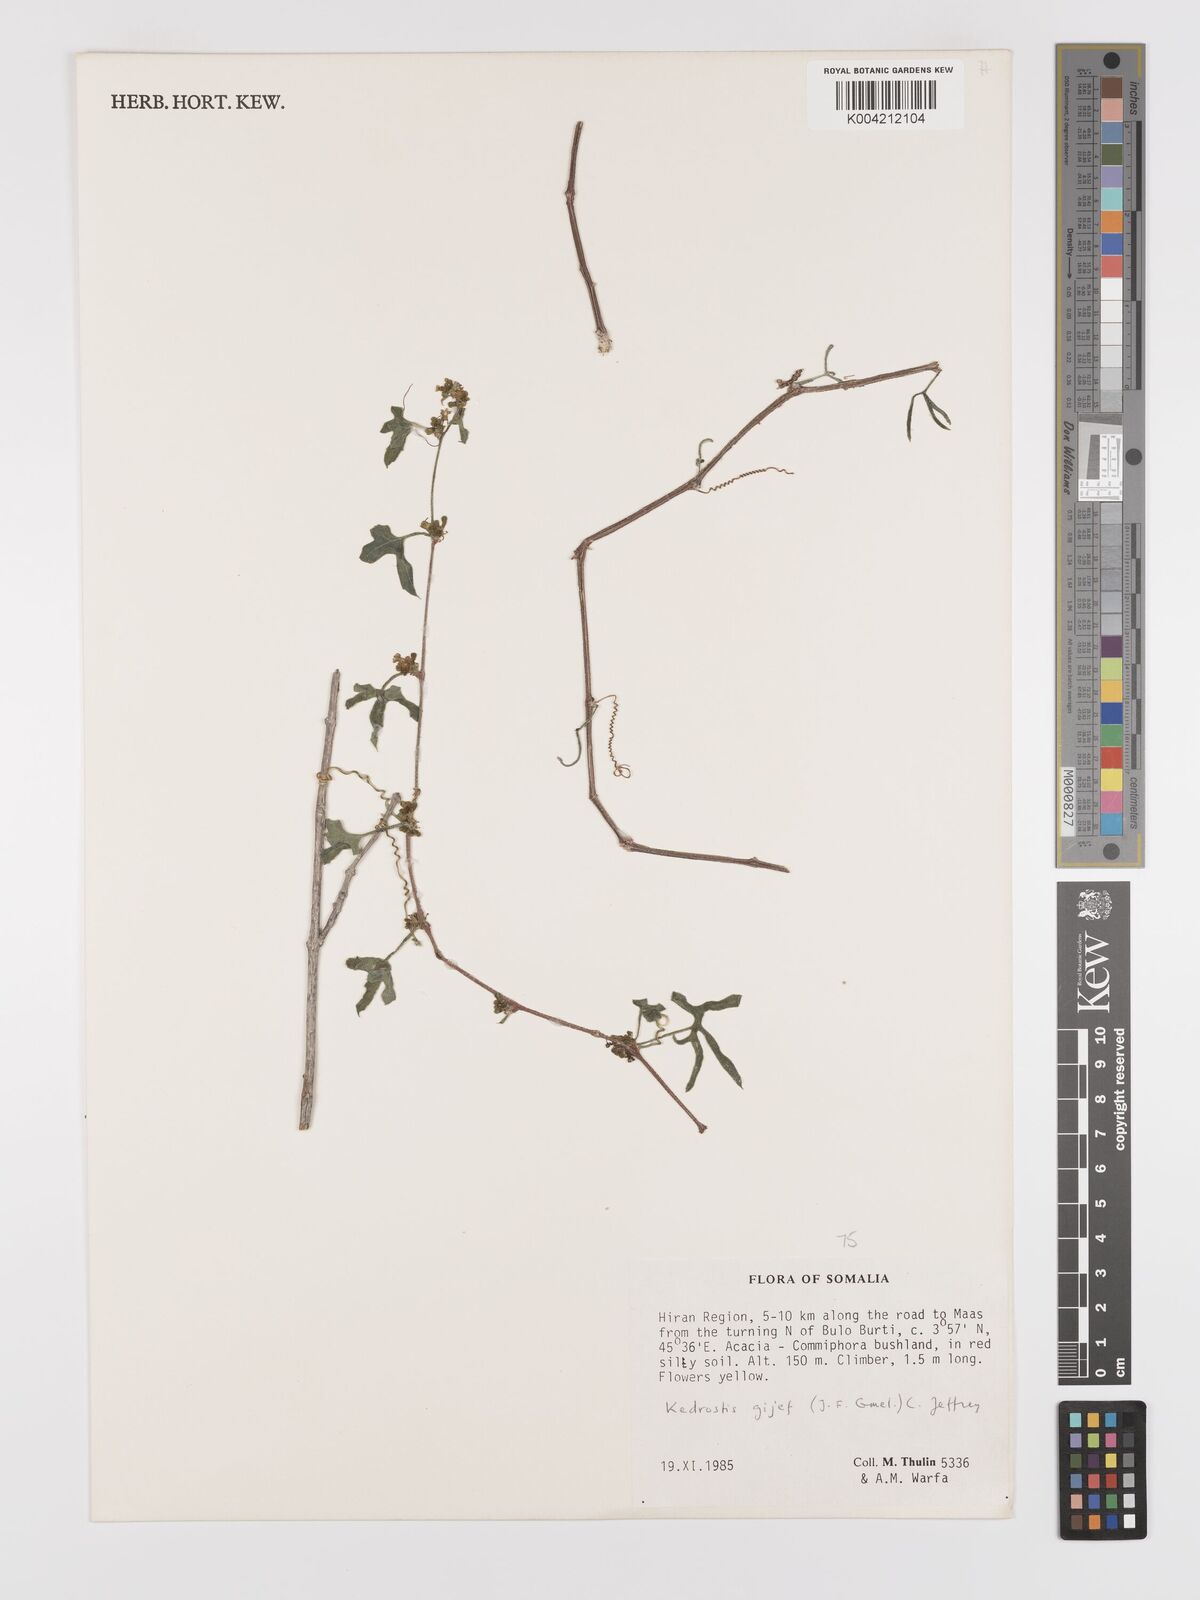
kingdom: Plantae
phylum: Tracheophyta
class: Magnoliopsida
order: Cucurbitales
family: Cucurbitaceae
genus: Kedrostis
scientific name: Kedrostis gijef
